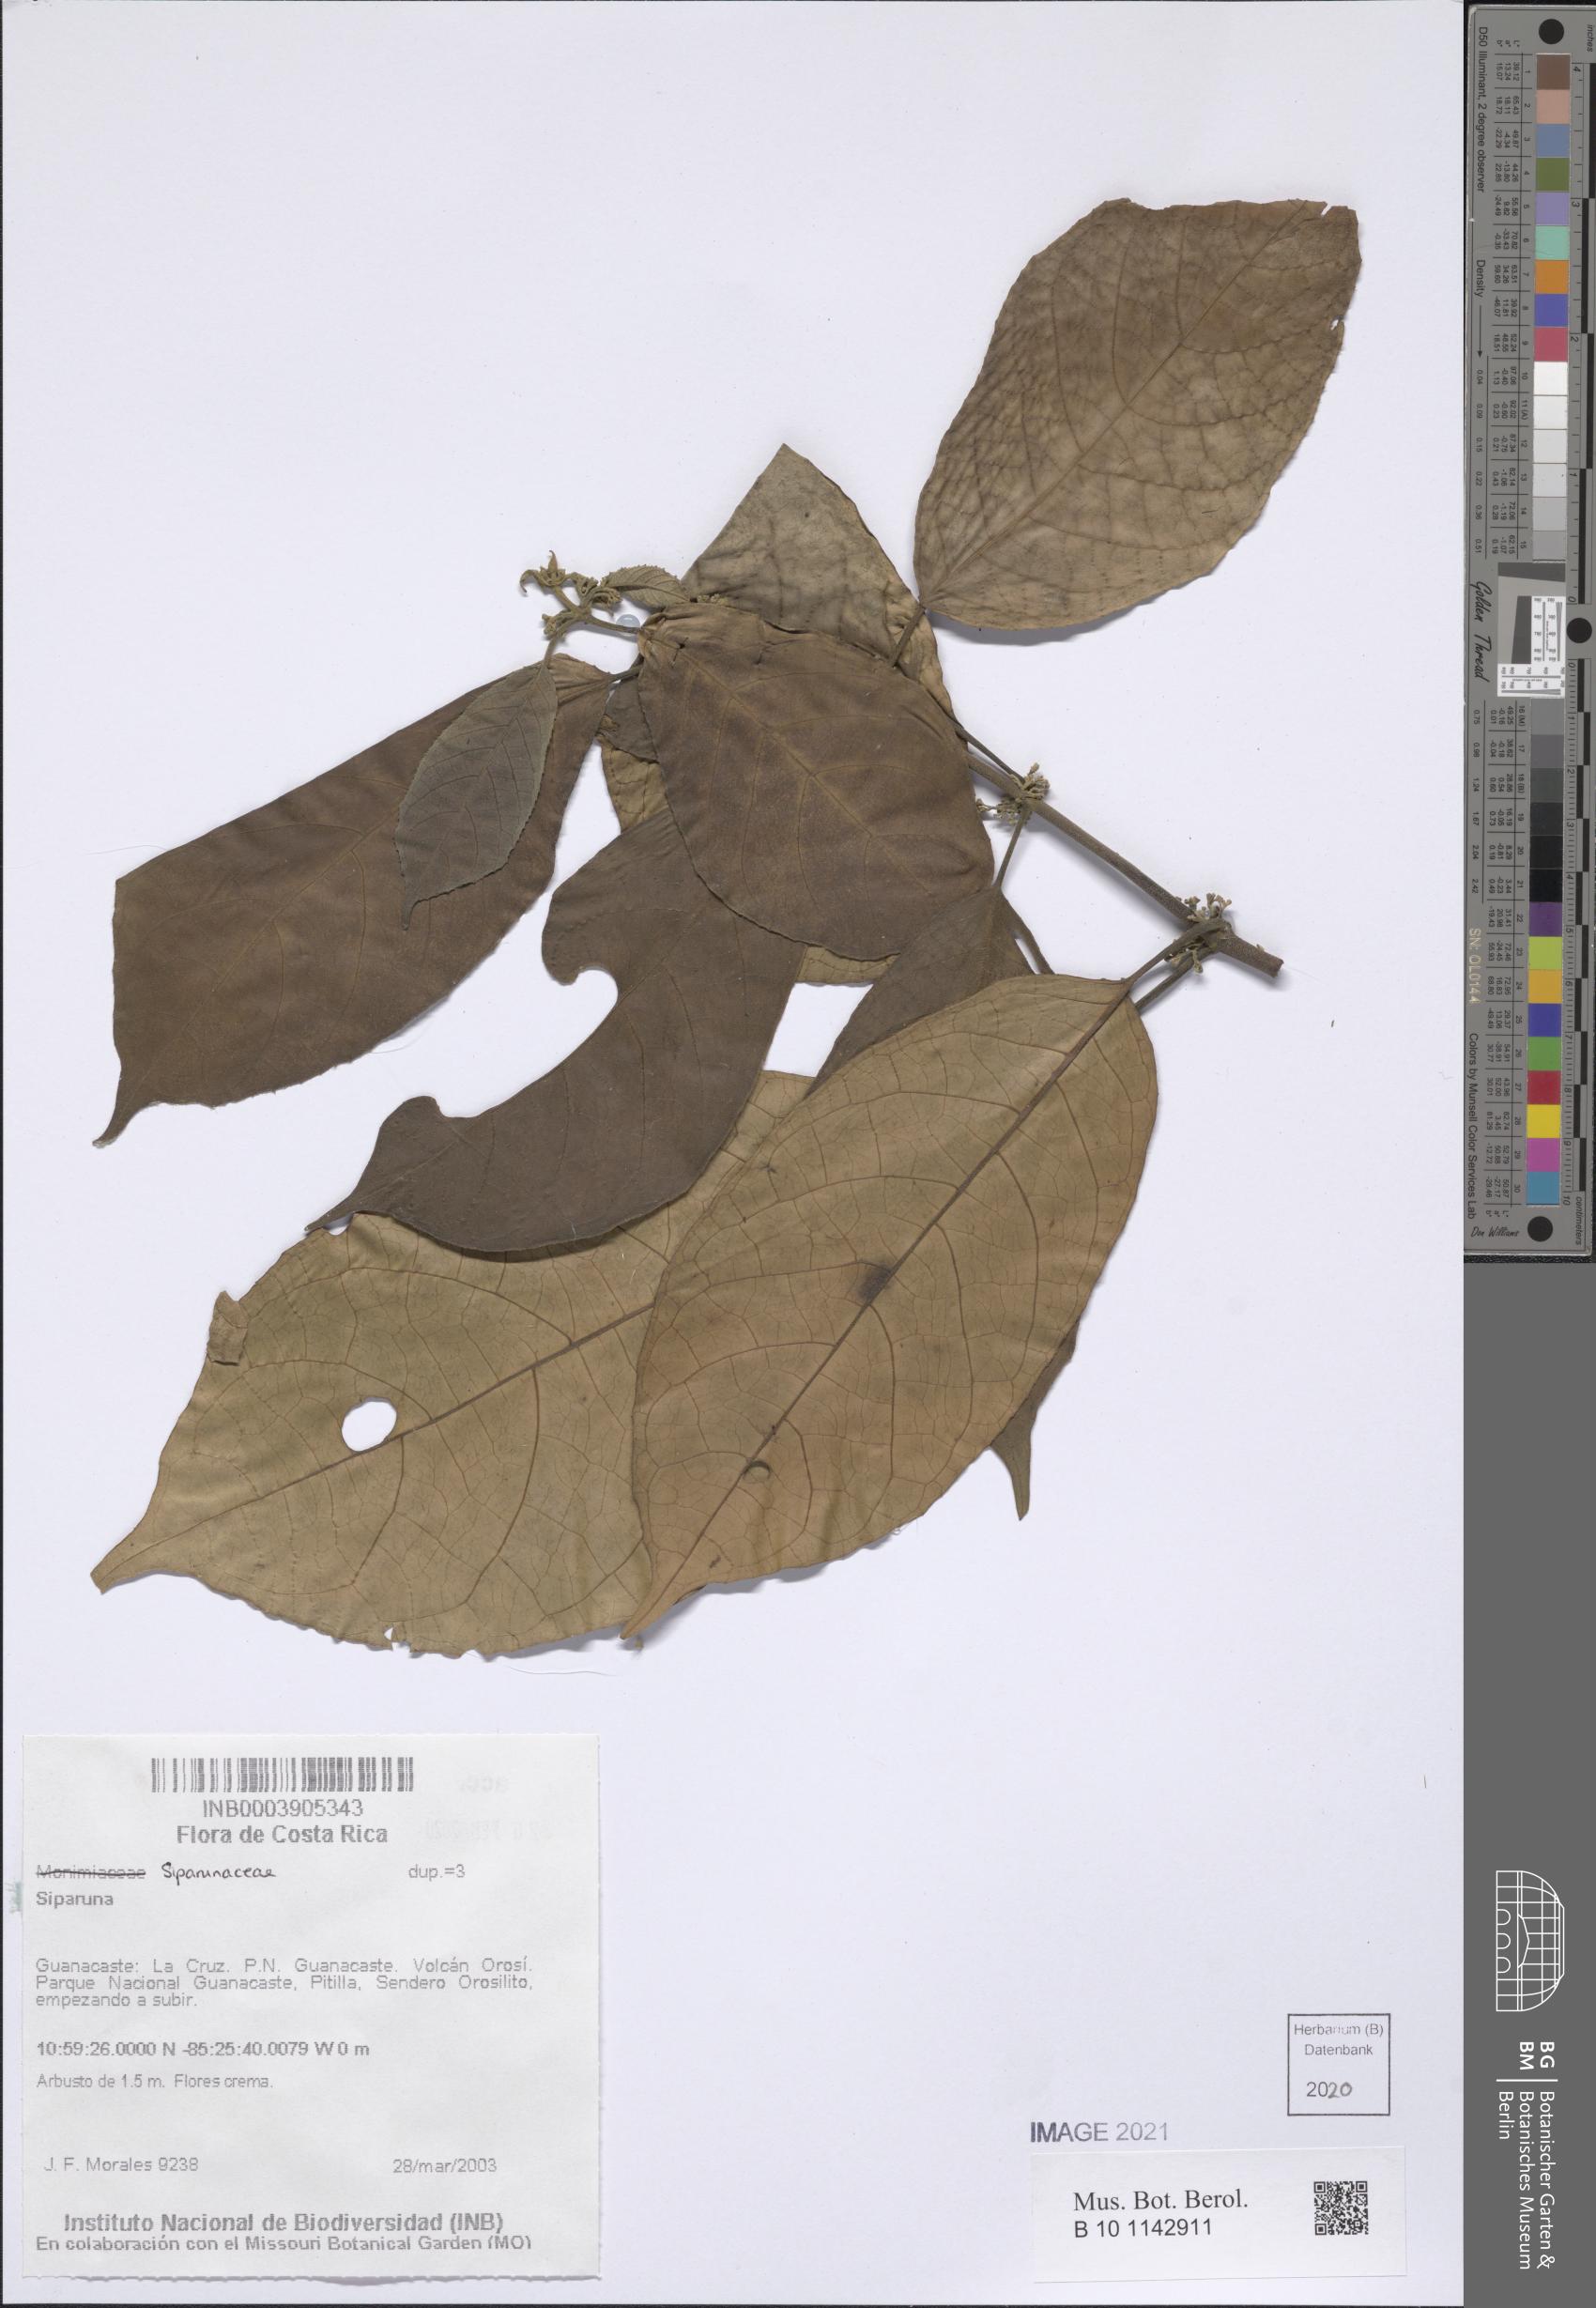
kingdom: Plantae
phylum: Tracheophyta
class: Magnoliopsida
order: Laurales
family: Siparunaceae
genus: Siparuna
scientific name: Siparuna
